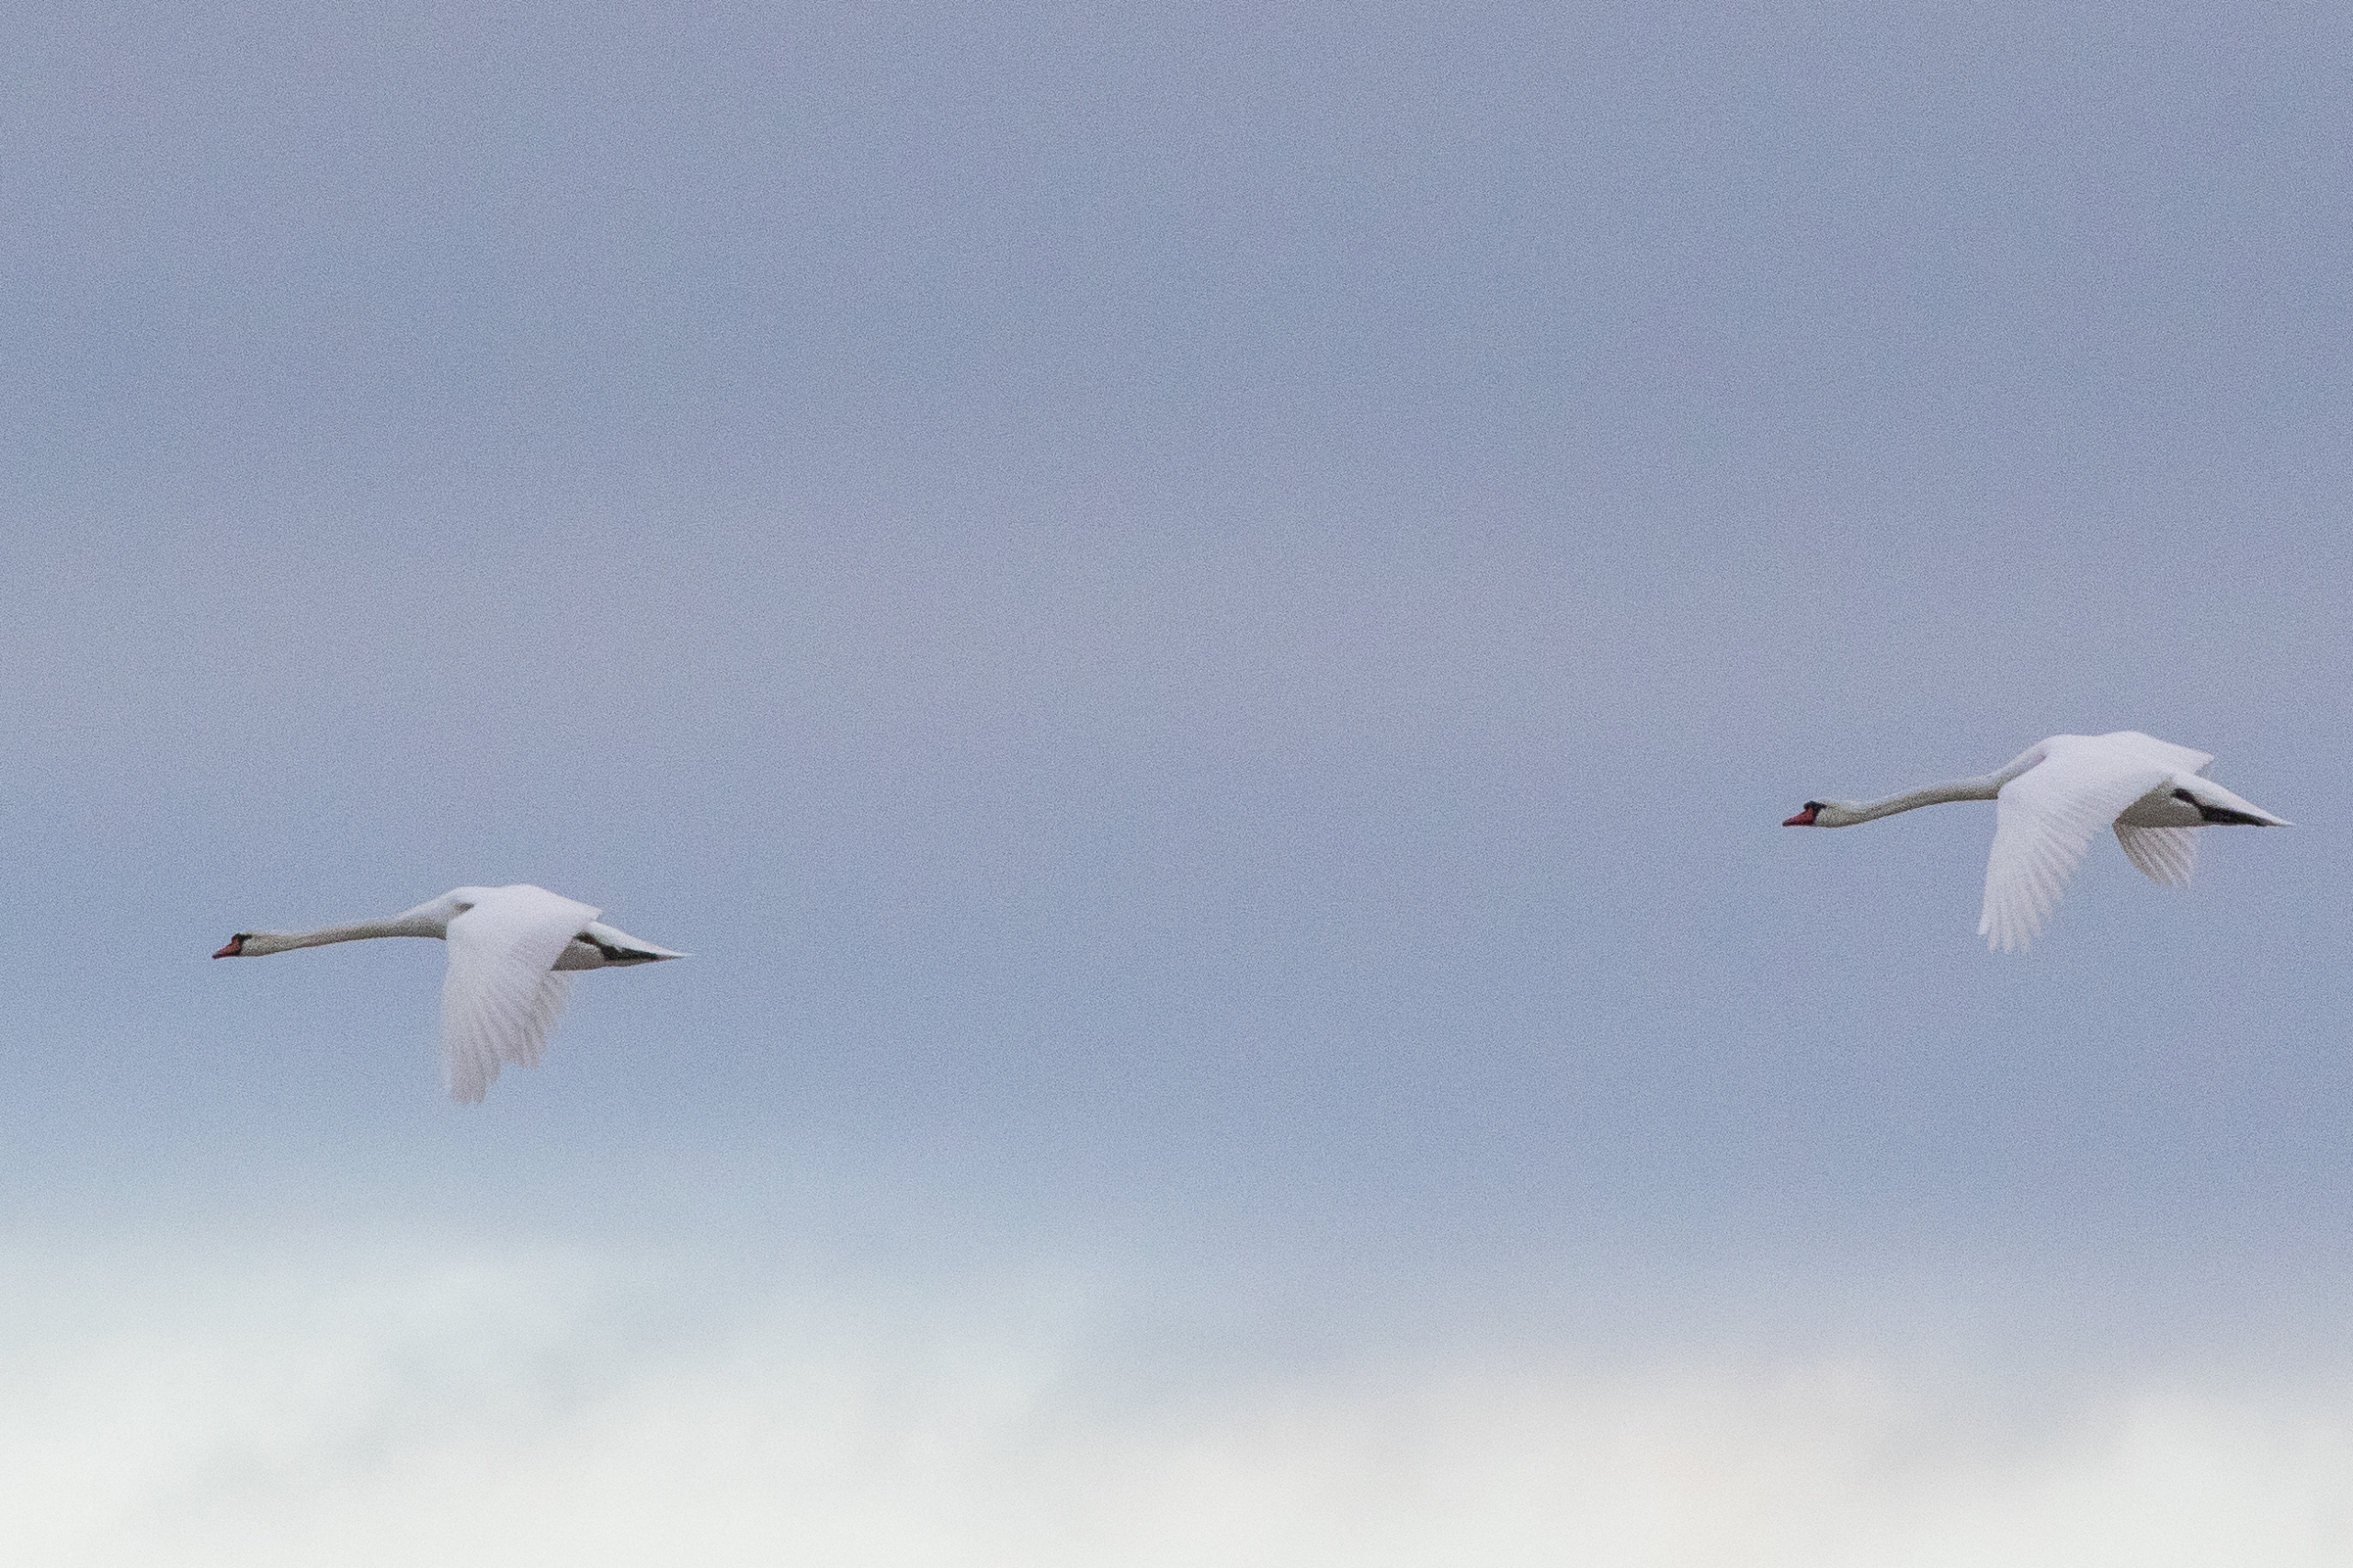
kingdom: Animalia
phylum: Chordata
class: Aves
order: Anseriformes
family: Anatidae
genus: Cygnus
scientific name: Cygnus olor
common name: Knopsvane
